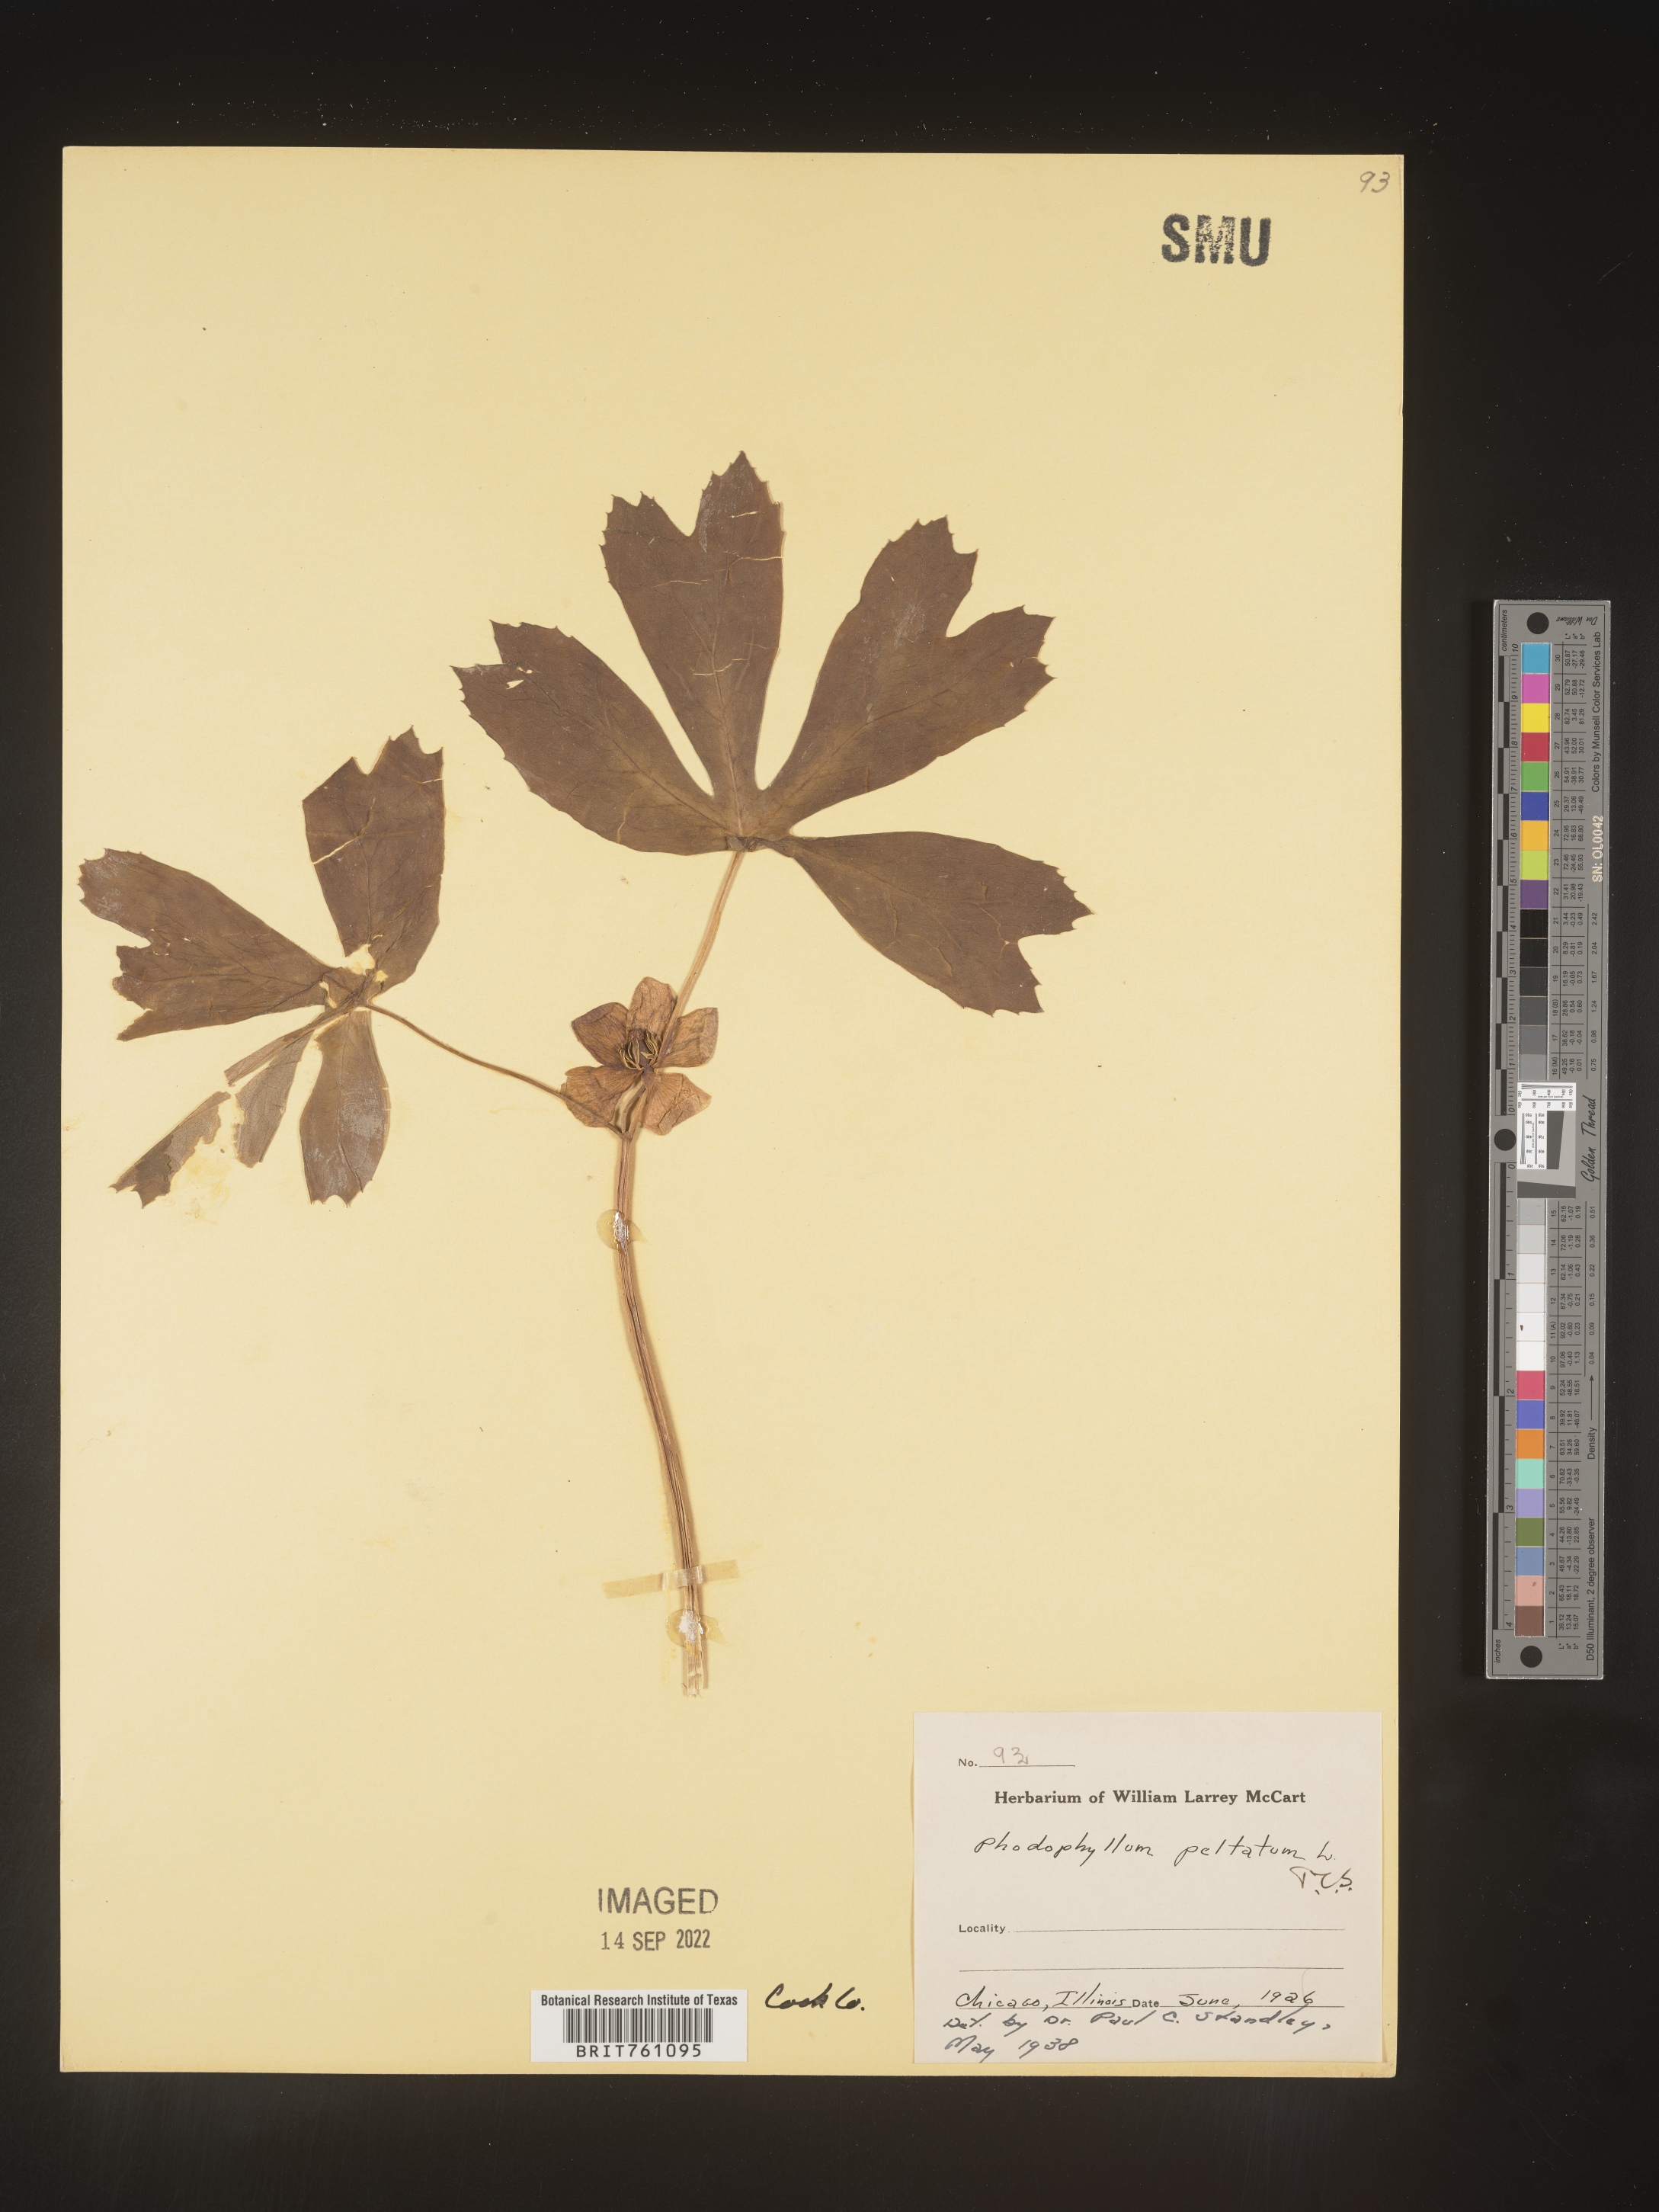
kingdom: Plantae
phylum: Tracheophyta
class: Magnoliopsida
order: Ranunculales
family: Berberidaceae
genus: Podophyllum
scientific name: Podophyllum peltatum
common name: Wild mandrake
